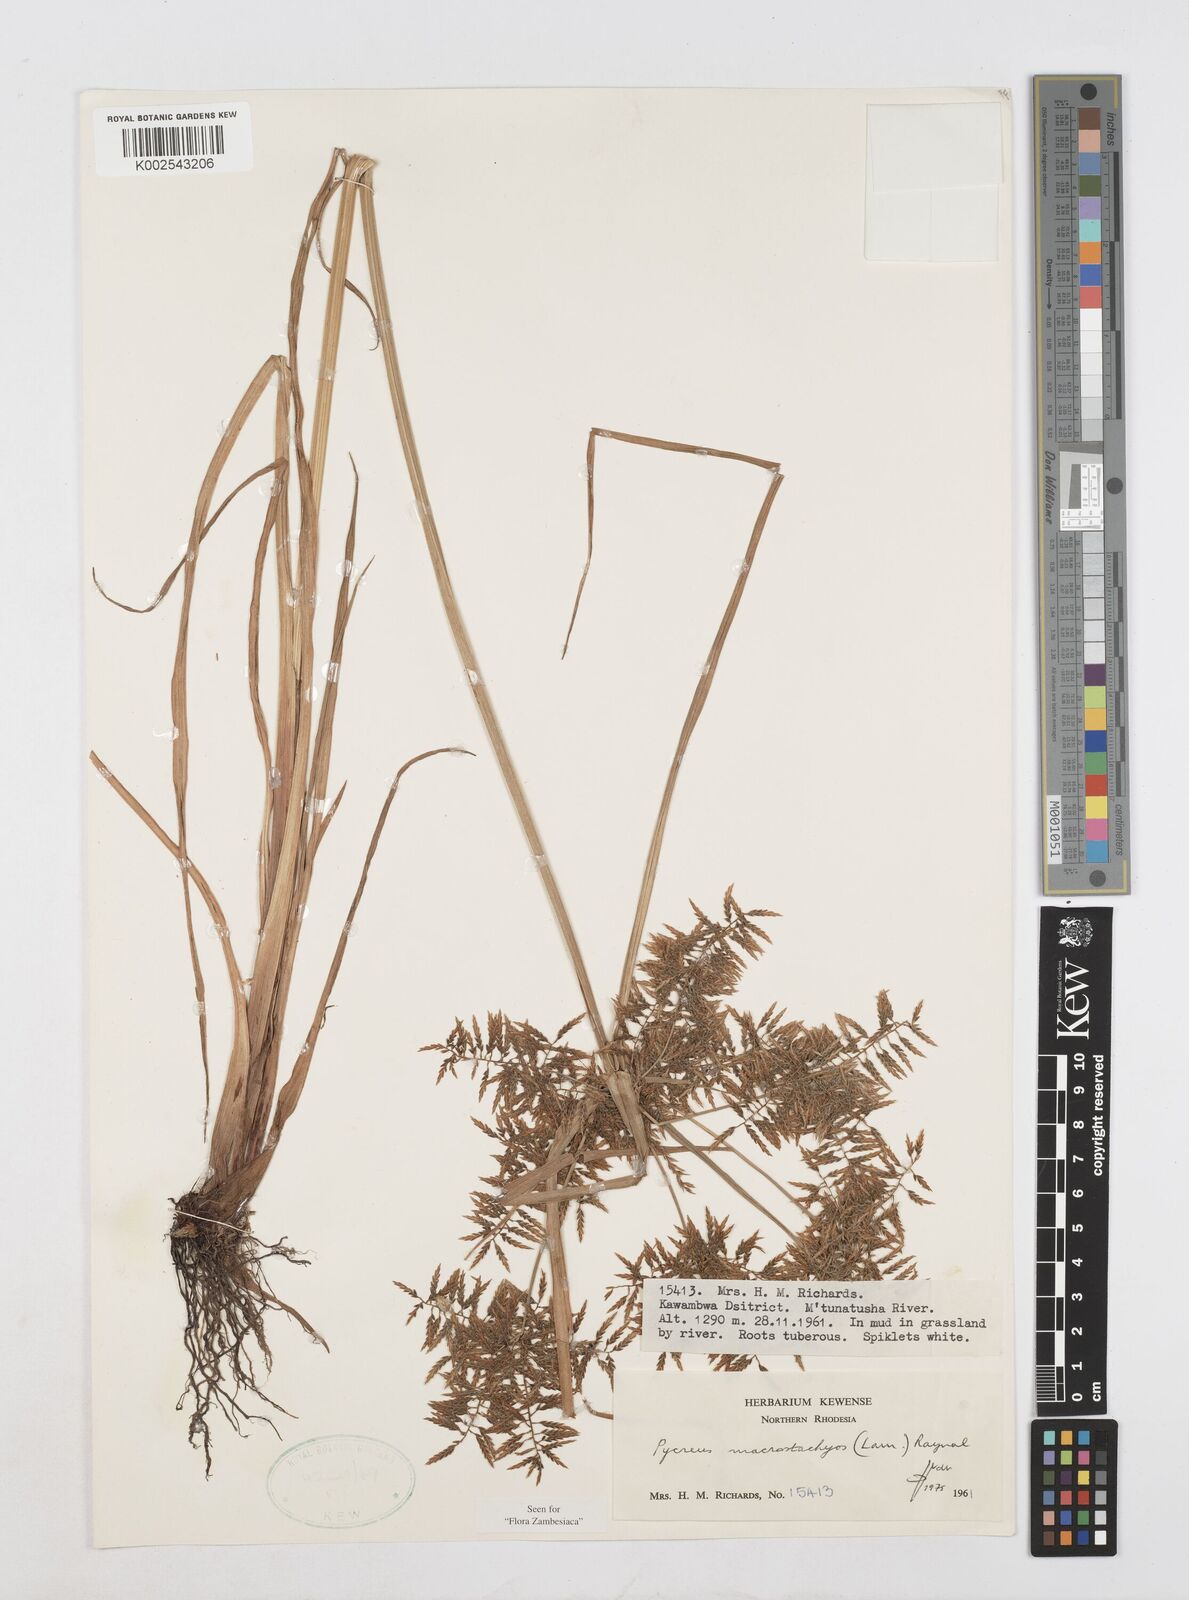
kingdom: Plantae
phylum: Tracheophyta
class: Liliopsida
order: Poales
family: Cyperaceae
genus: Cyperus
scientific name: Cyperus macrostachyos
